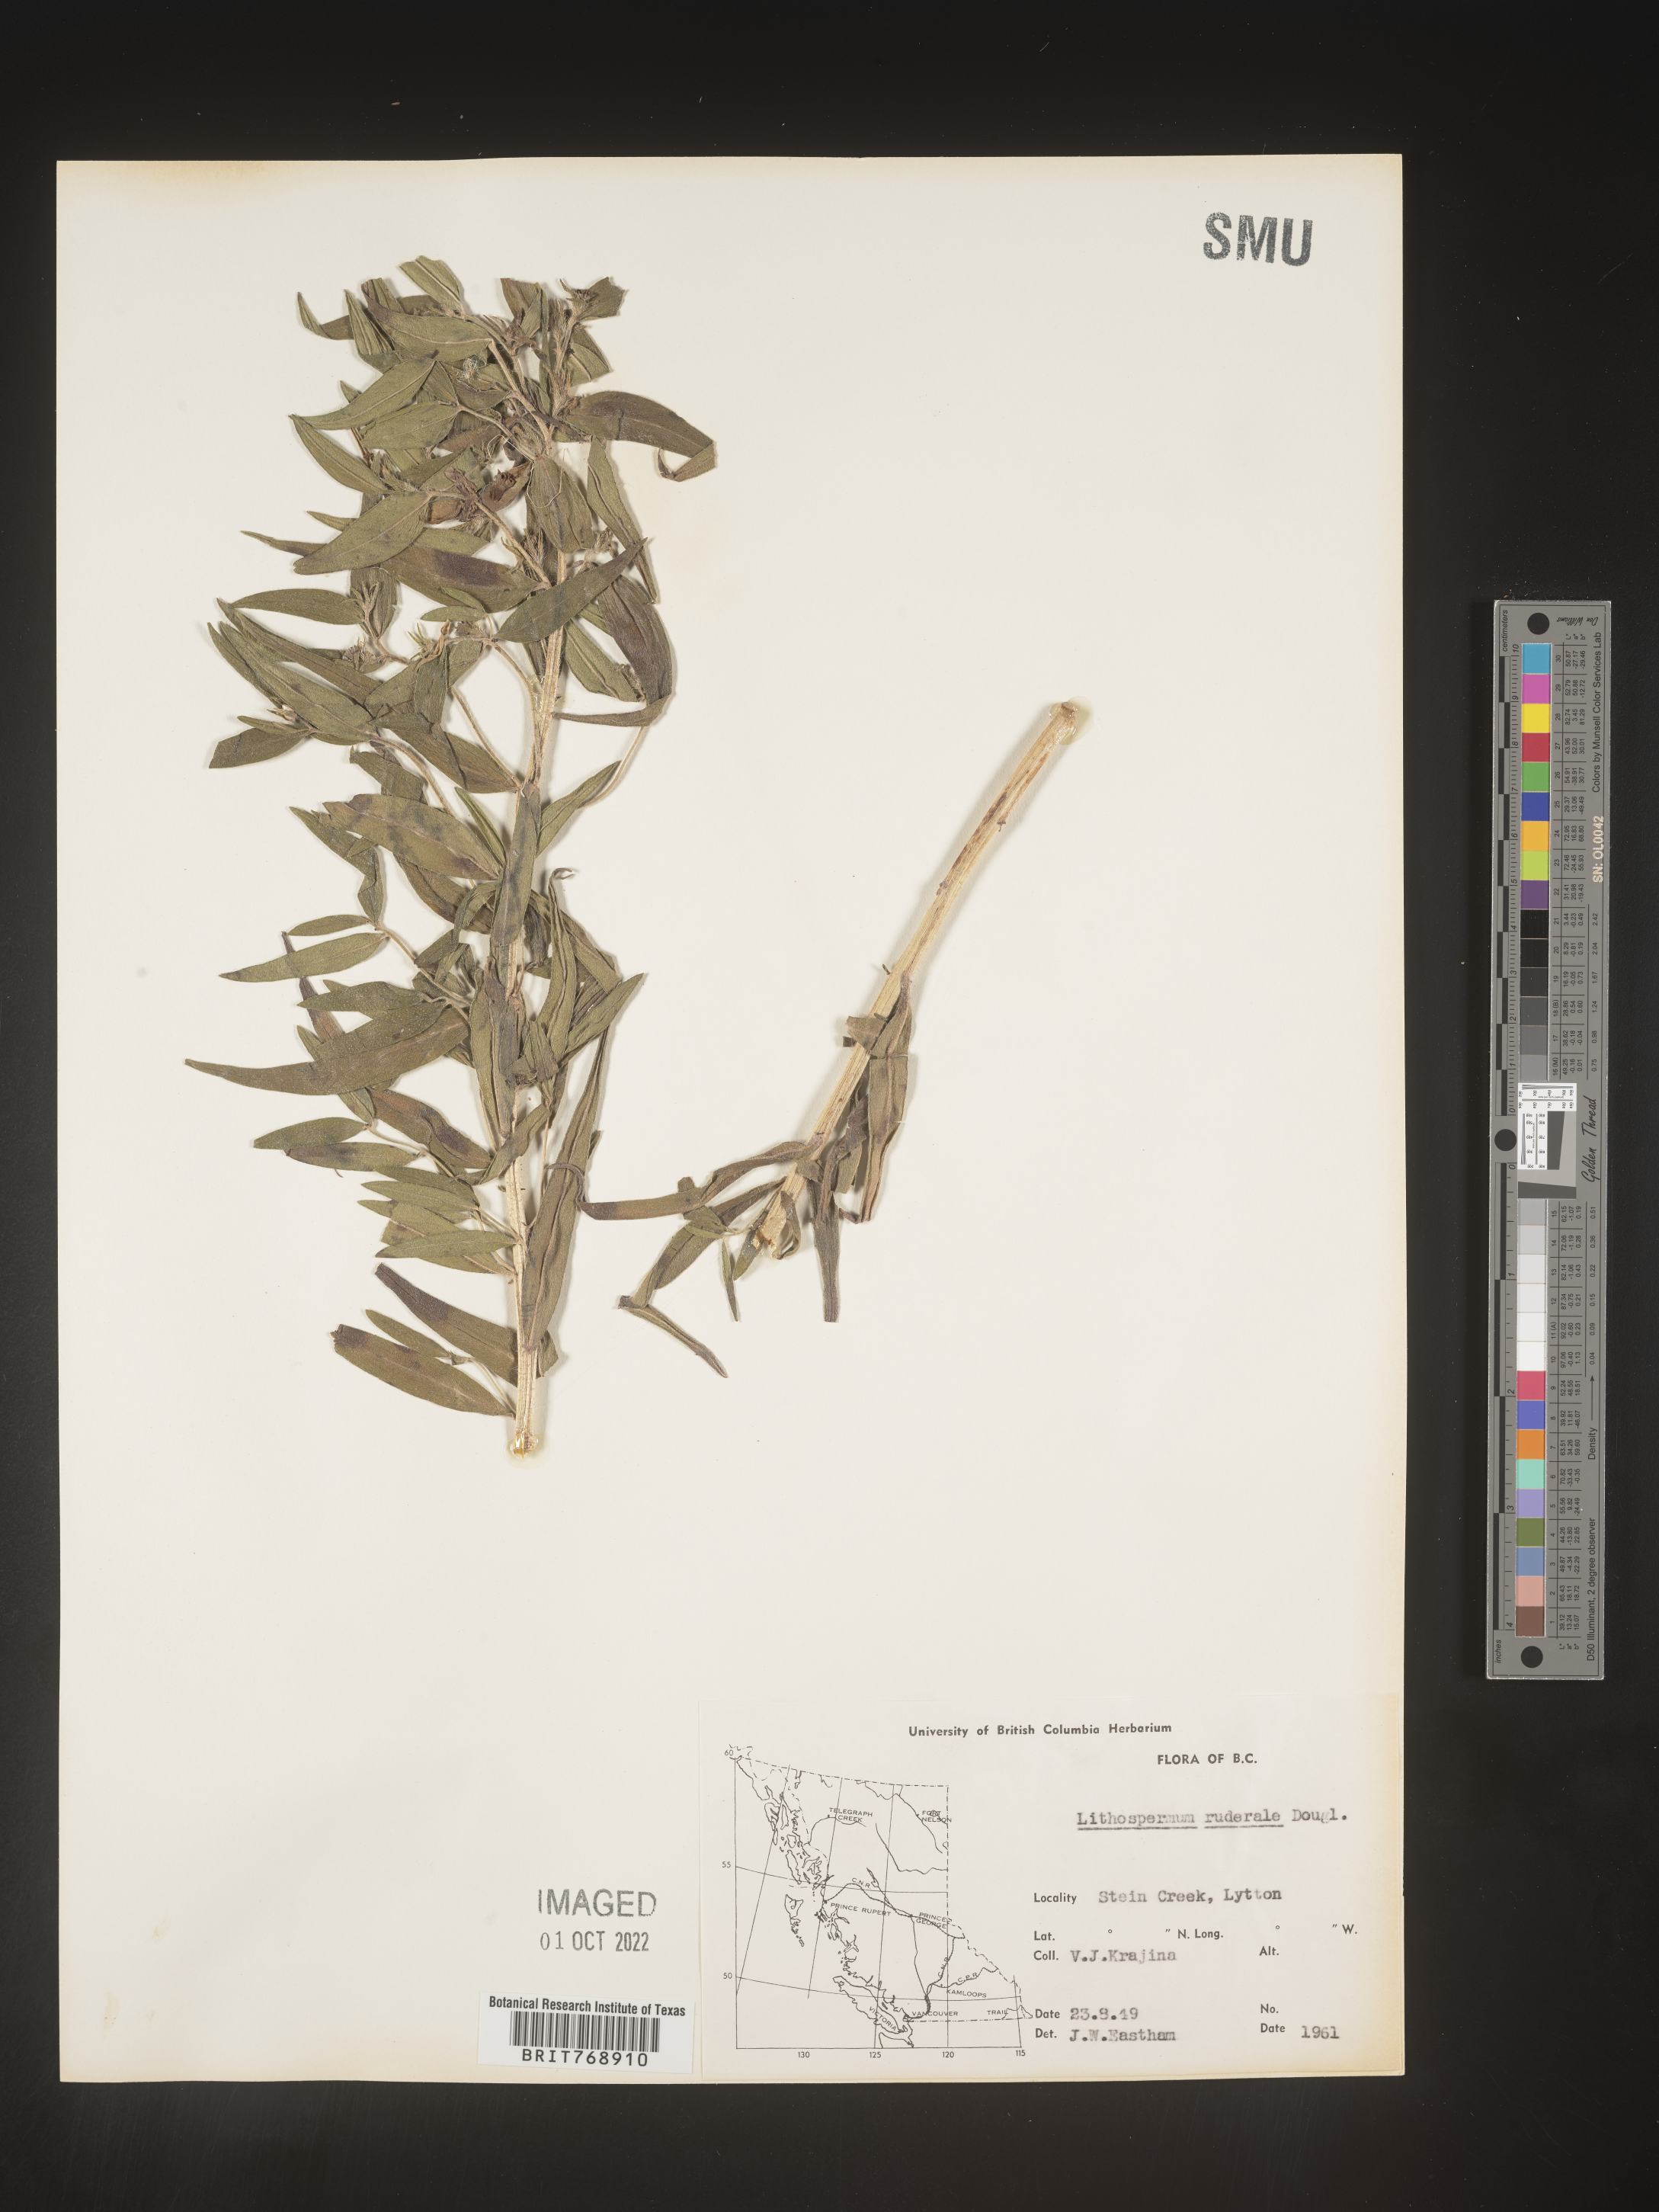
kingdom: Plantae
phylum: Tracheophyta
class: Magnoliopsida
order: Boraginales
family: Boraginaceae
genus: Lithospermum
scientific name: Lithospermum
